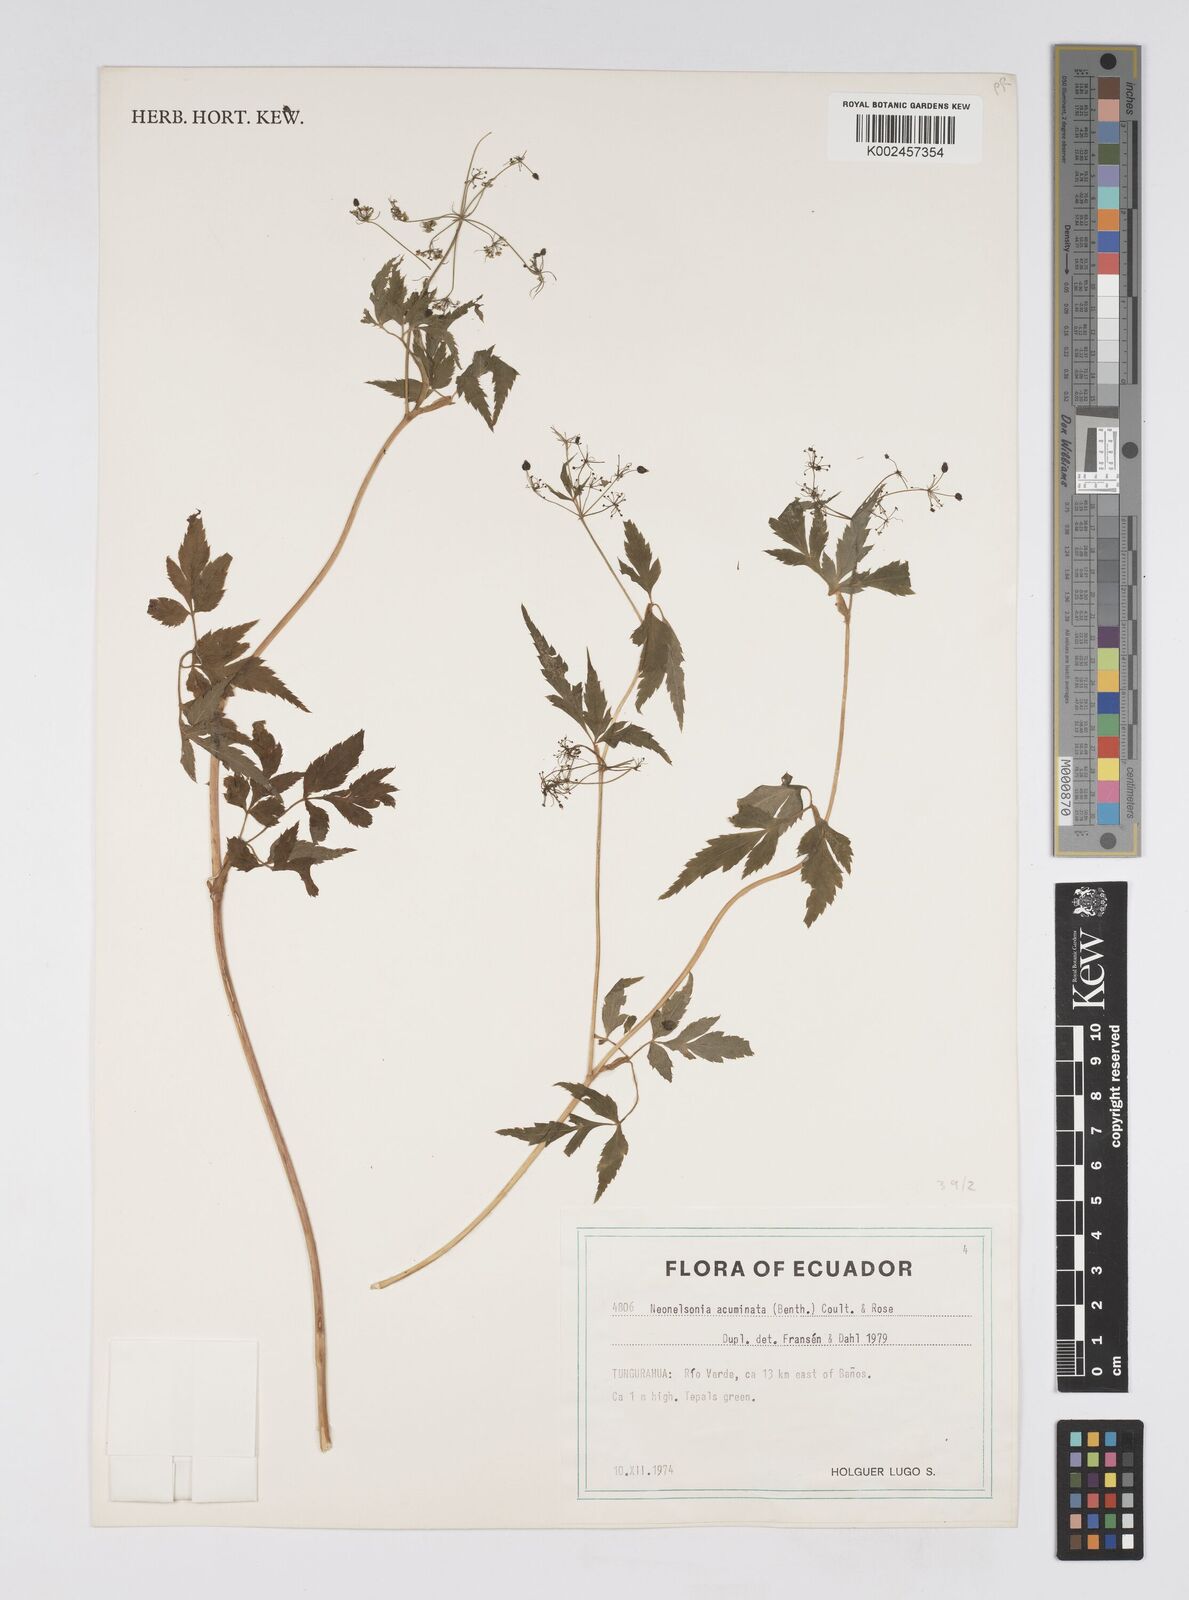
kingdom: Plantae
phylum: Tracheophyta
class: Magnoliopsida
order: Apiales
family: Apiaceae
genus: Neonelsonia
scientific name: Neonelsonia acuminata
